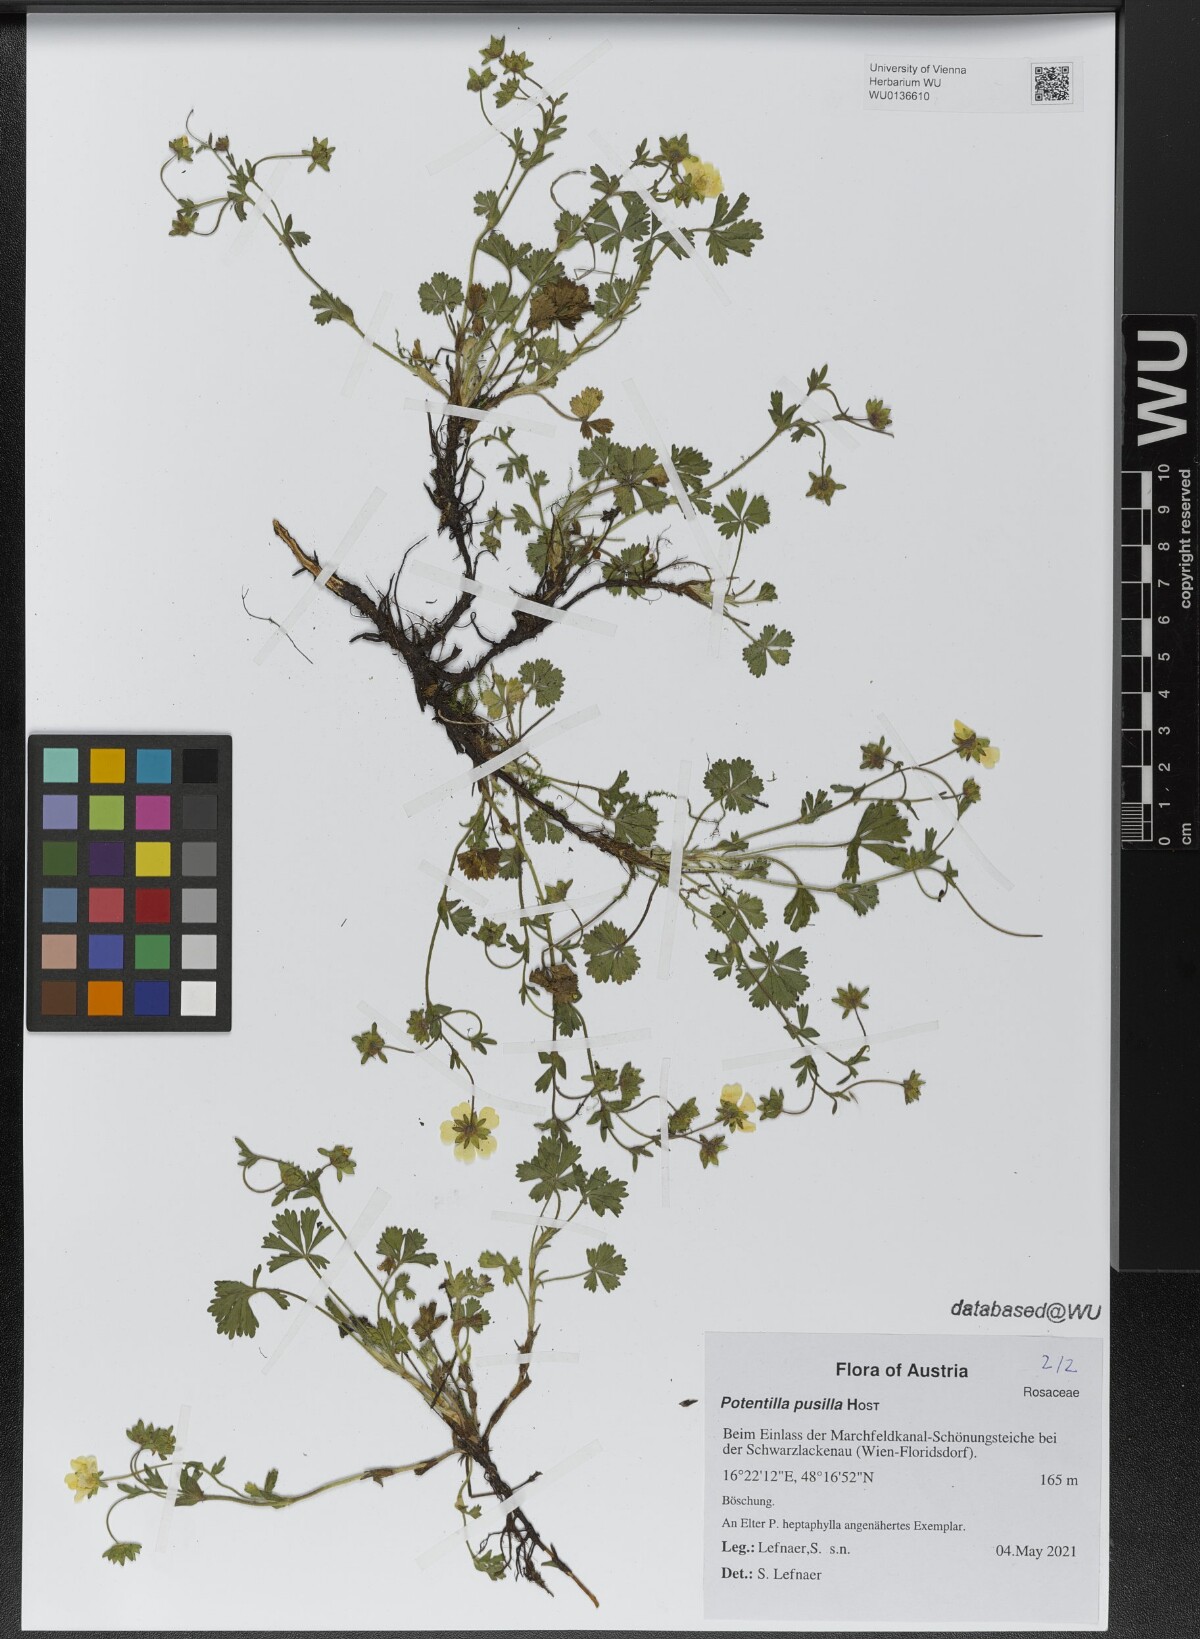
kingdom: Plantae
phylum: Tracheophyta
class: Magnoliopsida
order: Rosales
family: Rosaceae
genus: Potentilla
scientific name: Potentilla pusilla
